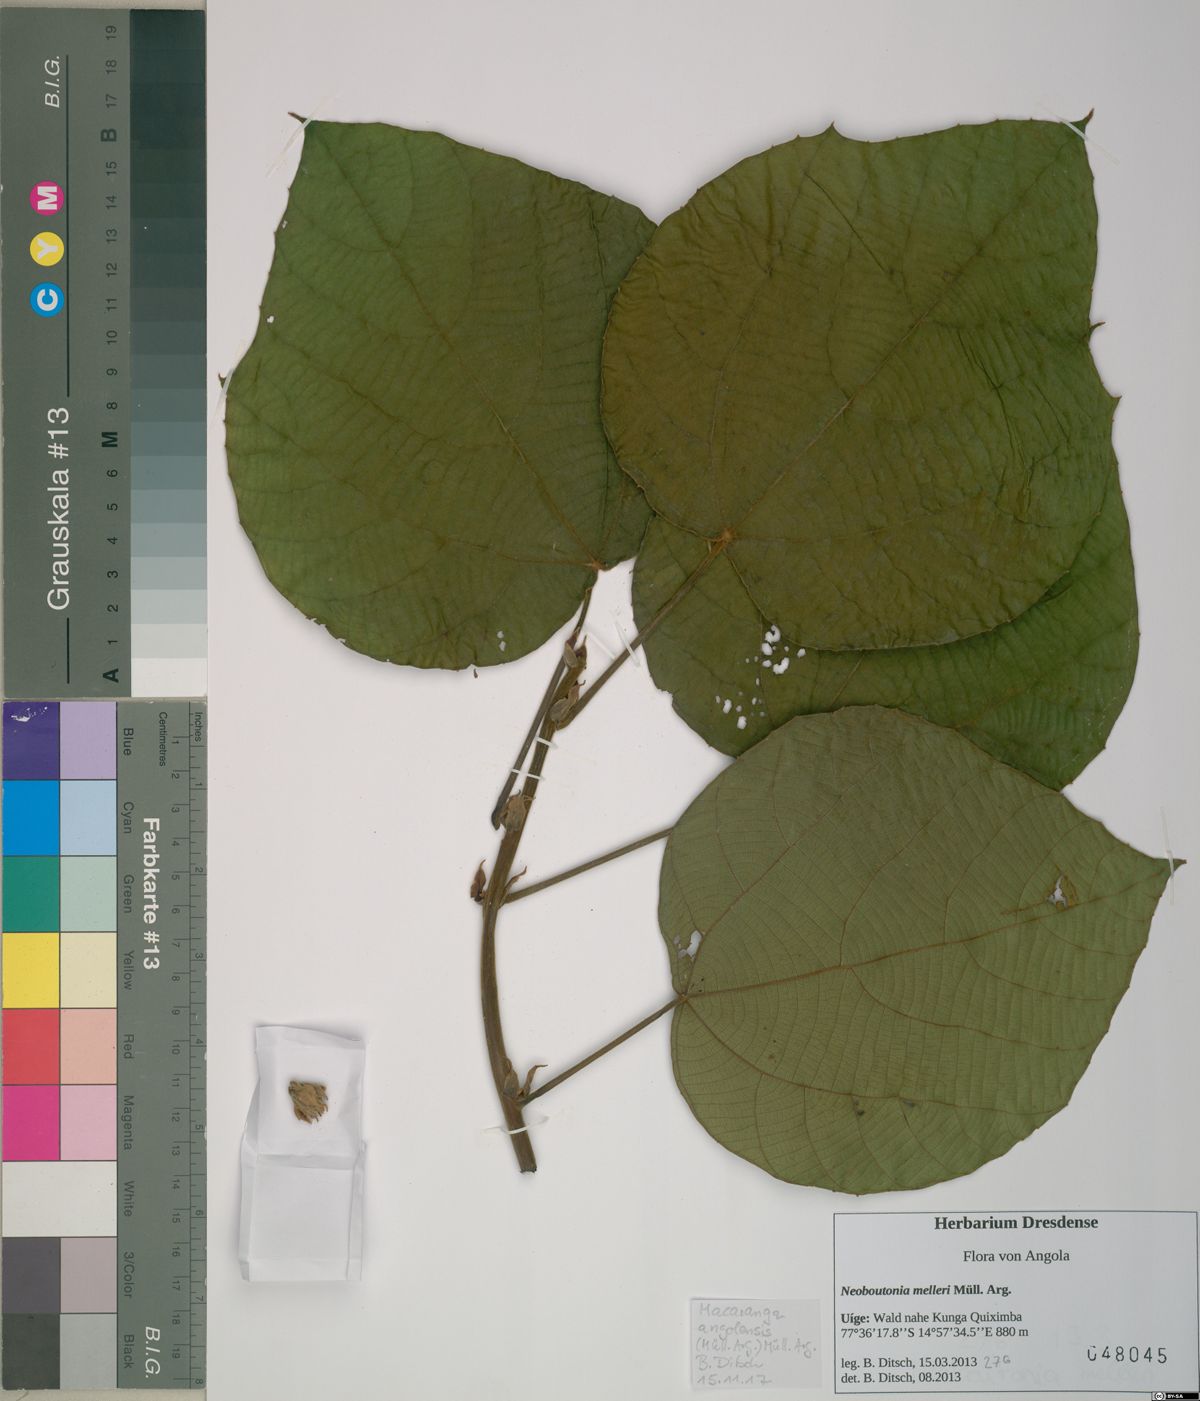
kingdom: Plantae
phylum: Tracheophyta
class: Magnoliopsida
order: Malpighiales
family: Euphorbiaceae
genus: Macaranga
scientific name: Macaranga angolensis
